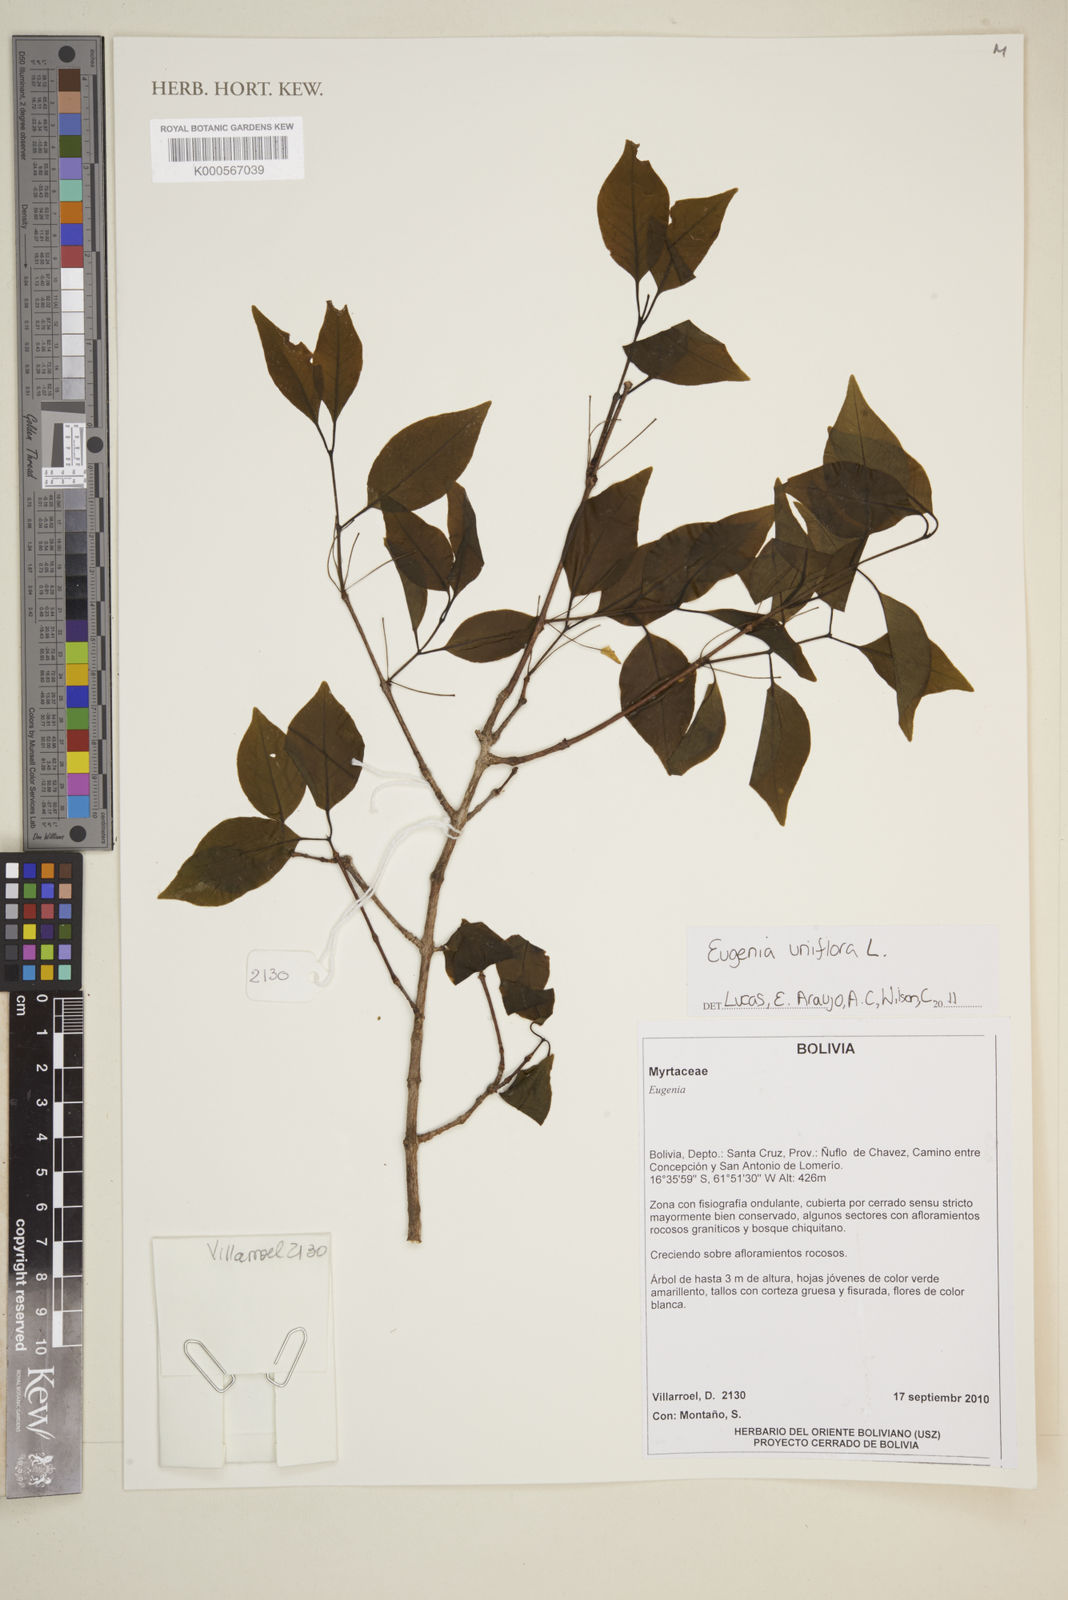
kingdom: Plantae
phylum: Tracheophyta
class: Magnoliopsida
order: Myrtales
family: Myrtaceae
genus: Eugenia
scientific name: Eugenia uniflora
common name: Surinam cherry
